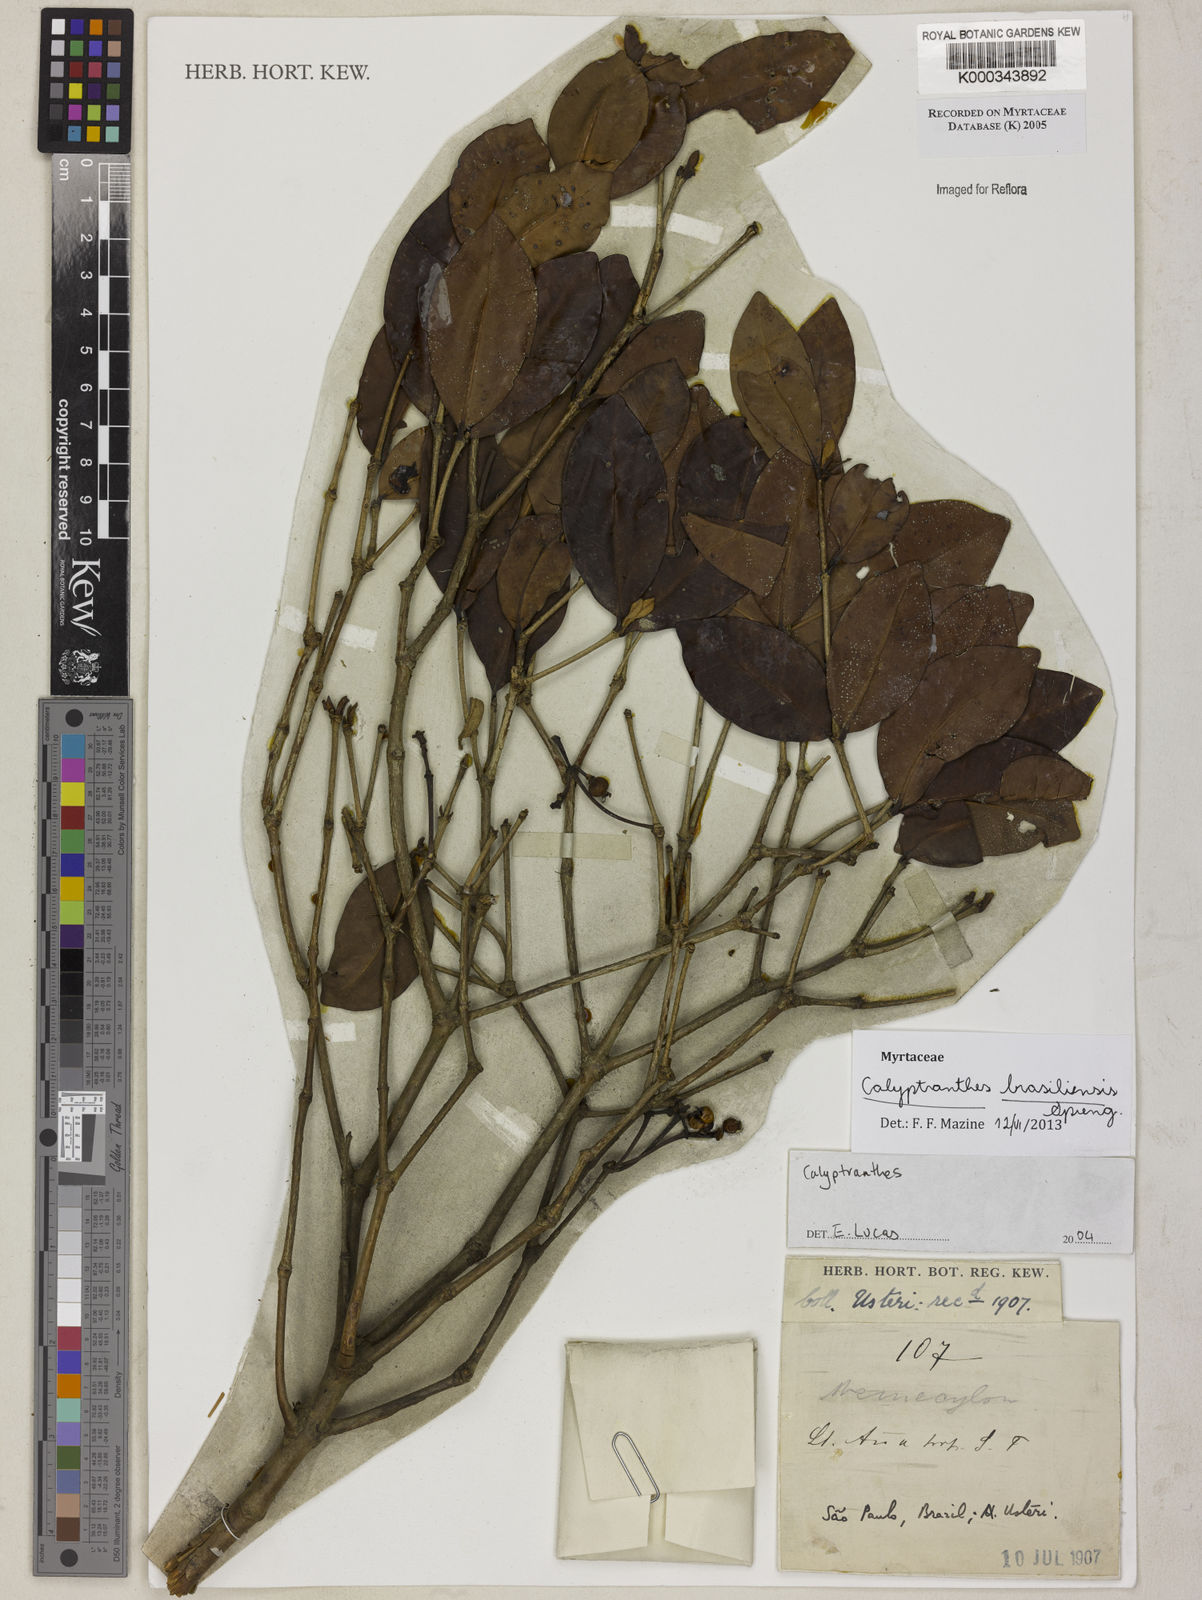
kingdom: Plantae
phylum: Tracheophyta
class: Magnoliopsida
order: Myrtales
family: Myrtaceae
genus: Calyptranthes
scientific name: Calyptranthes
